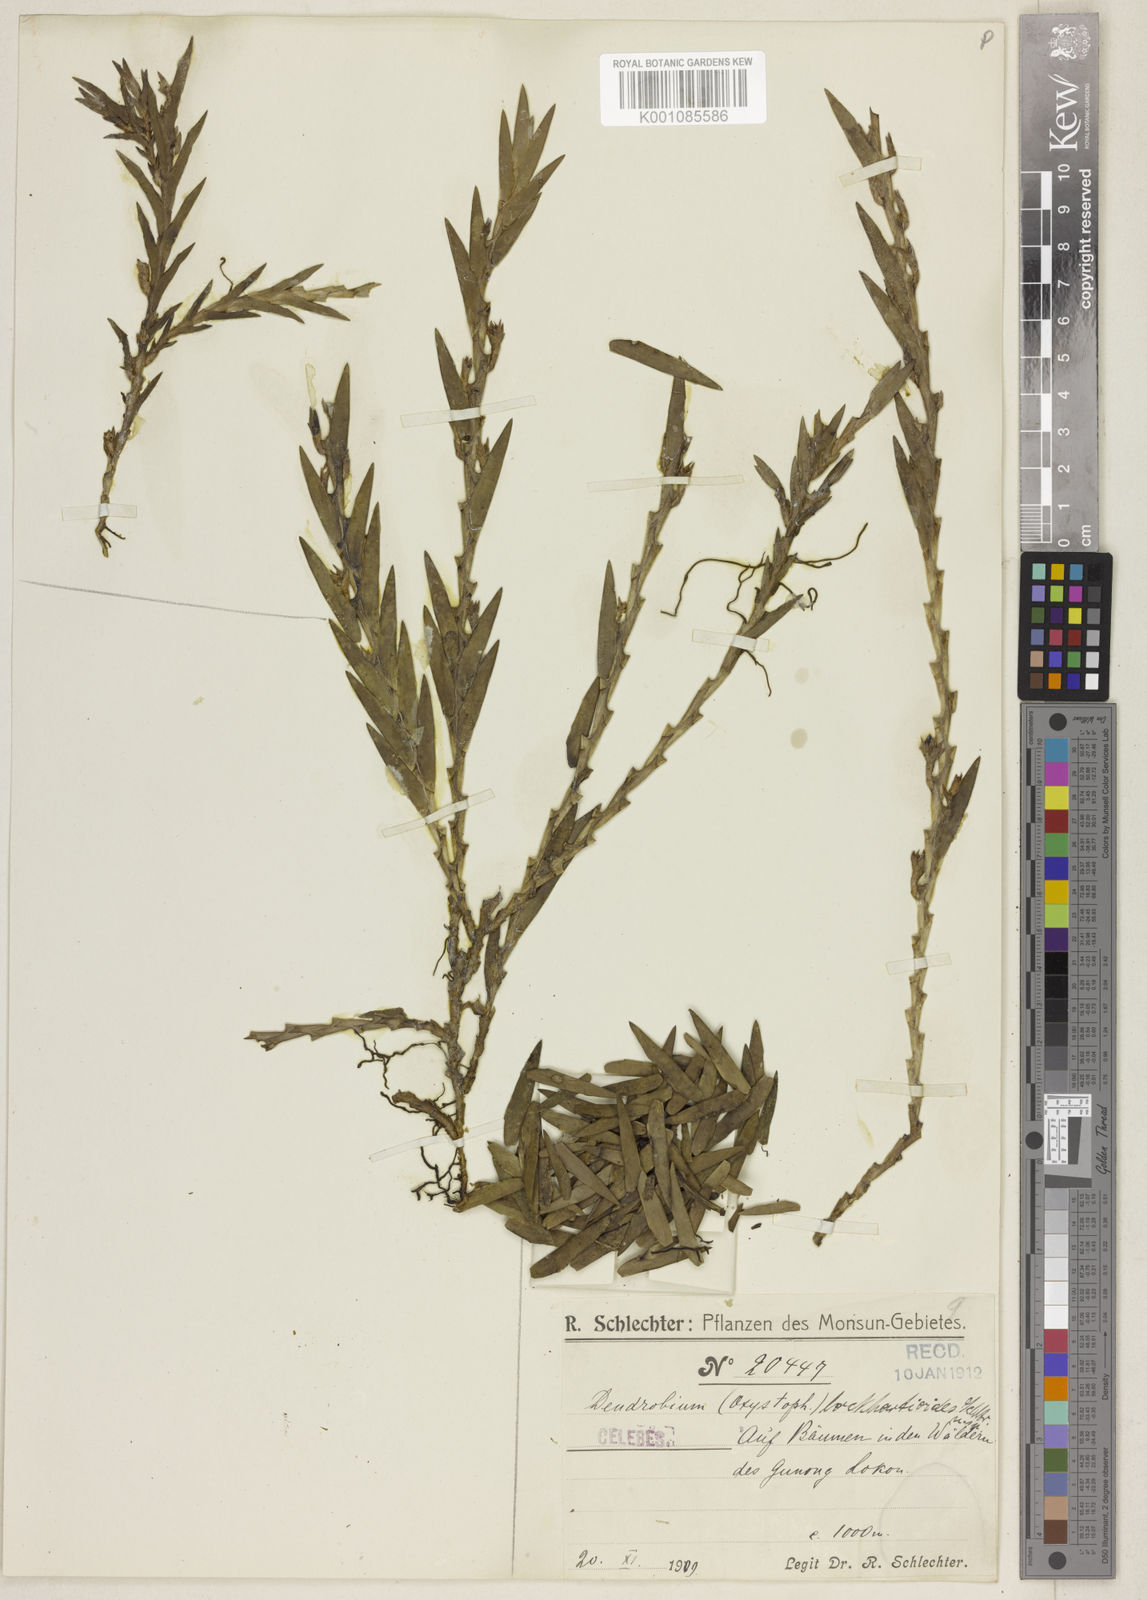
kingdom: Plantae
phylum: Tracheophyta
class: Liliopsida
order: Asparagales
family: Orchidaceae
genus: Oxystophyllum
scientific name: Oxystophyllum lockhartioides
